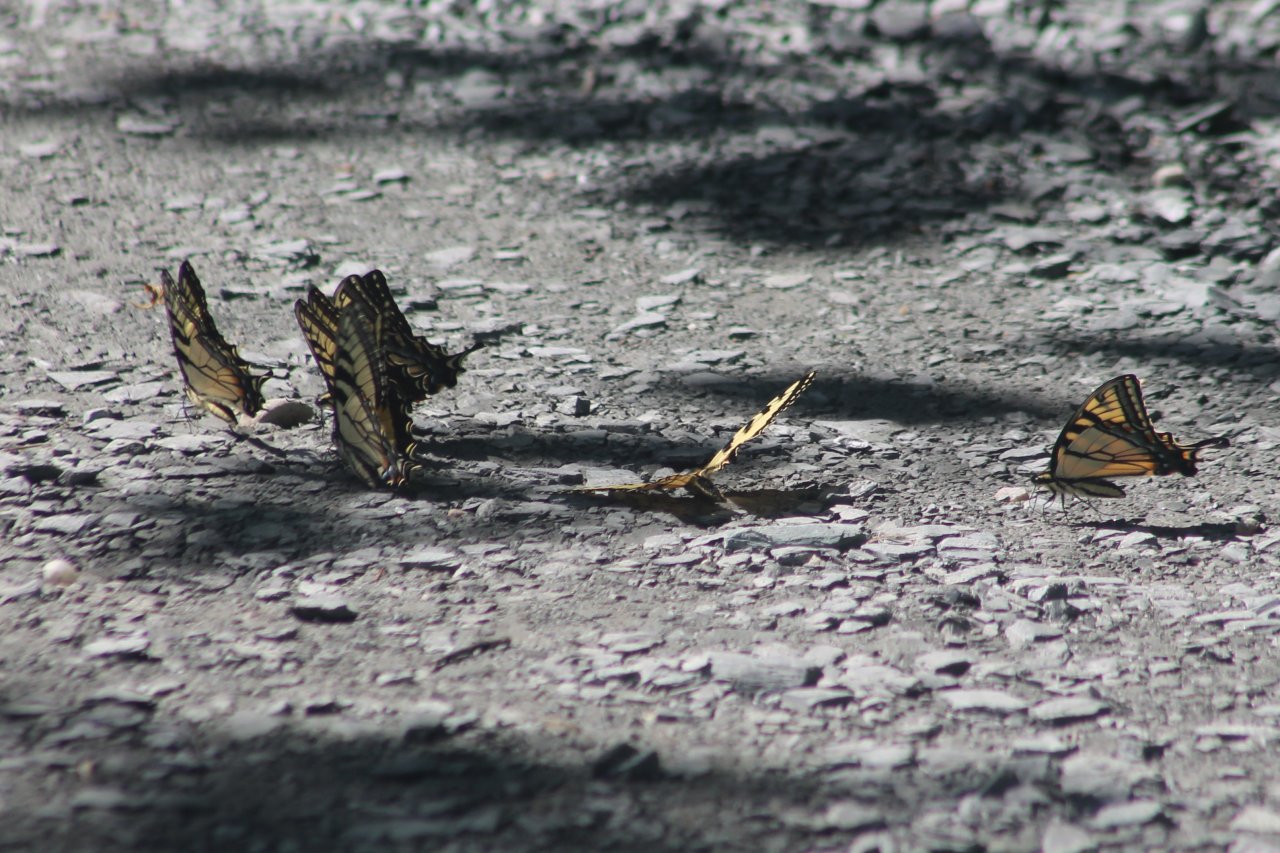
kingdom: Animalia
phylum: Arthropoda
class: Insecta
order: Lepidoptera
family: Papilionidae
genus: Pterourus
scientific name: Pterourus canadensis
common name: Canadian Tiger Swallowtail
